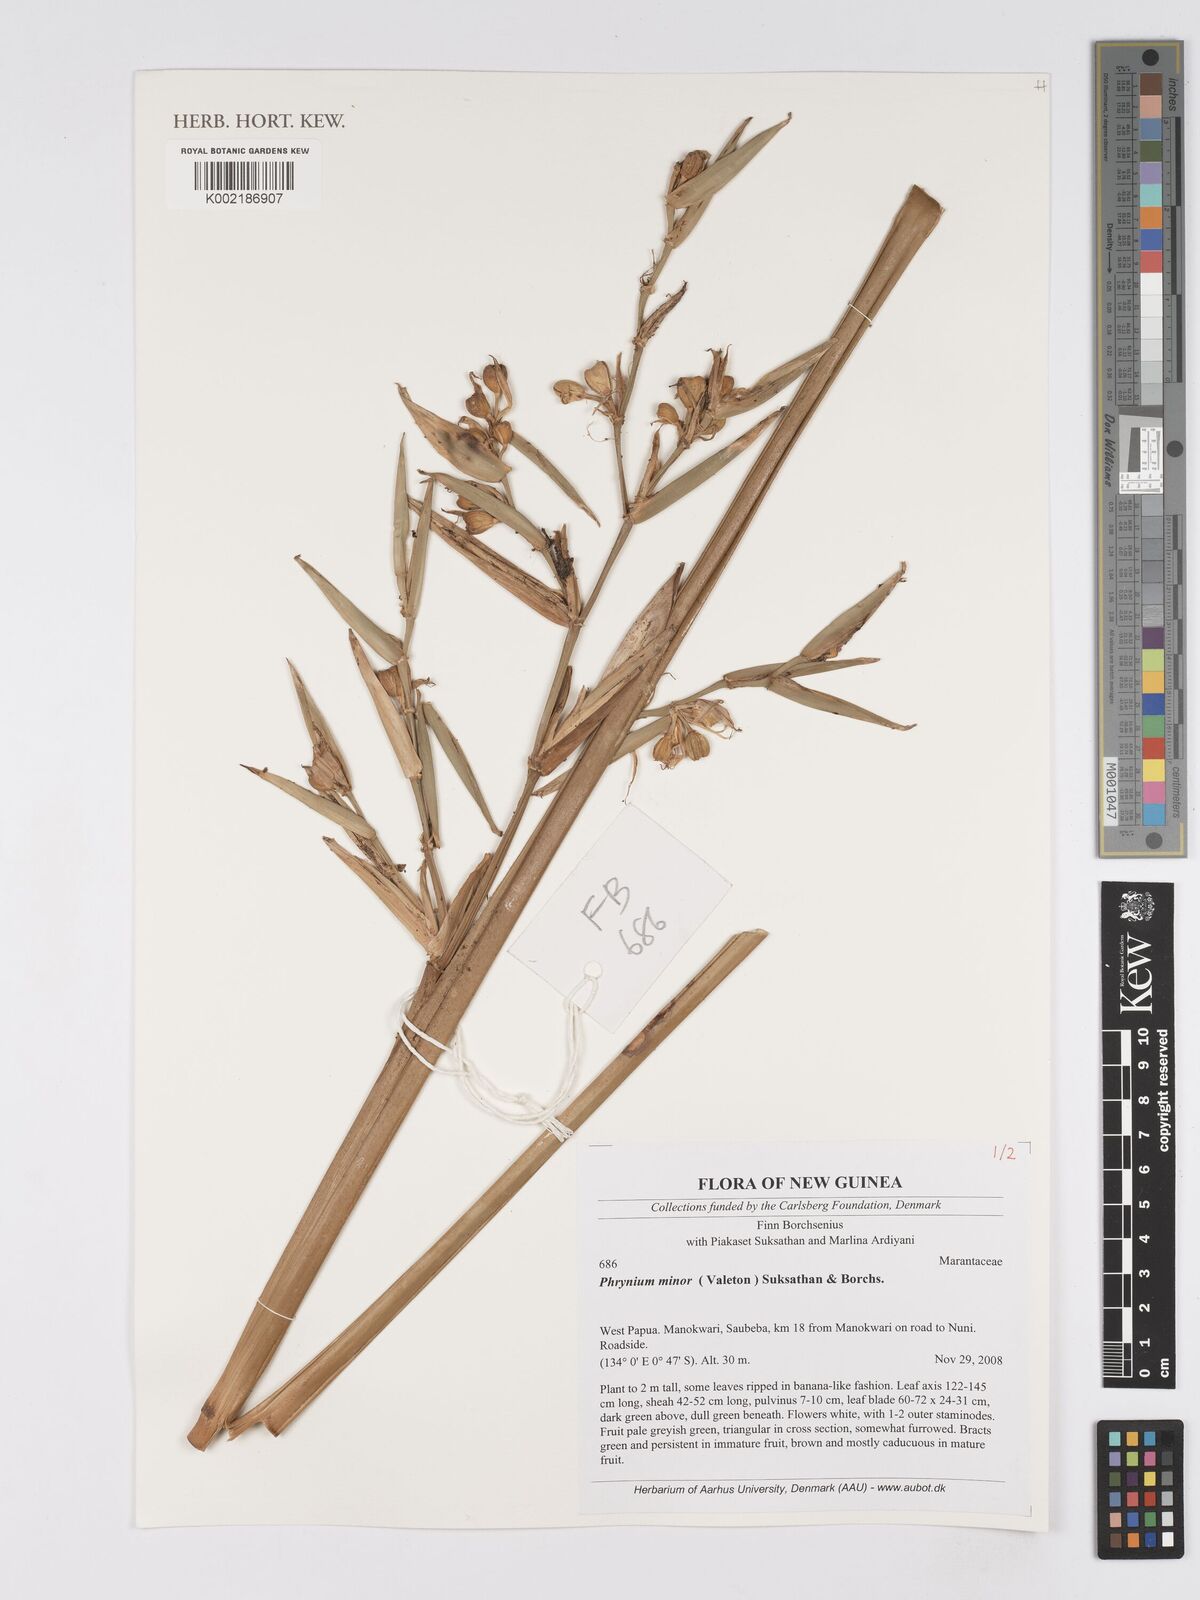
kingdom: Plantae
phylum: Tracheophyta
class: Liliopsida
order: Zingiberales
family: Marantaceae
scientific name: Marantaceae
